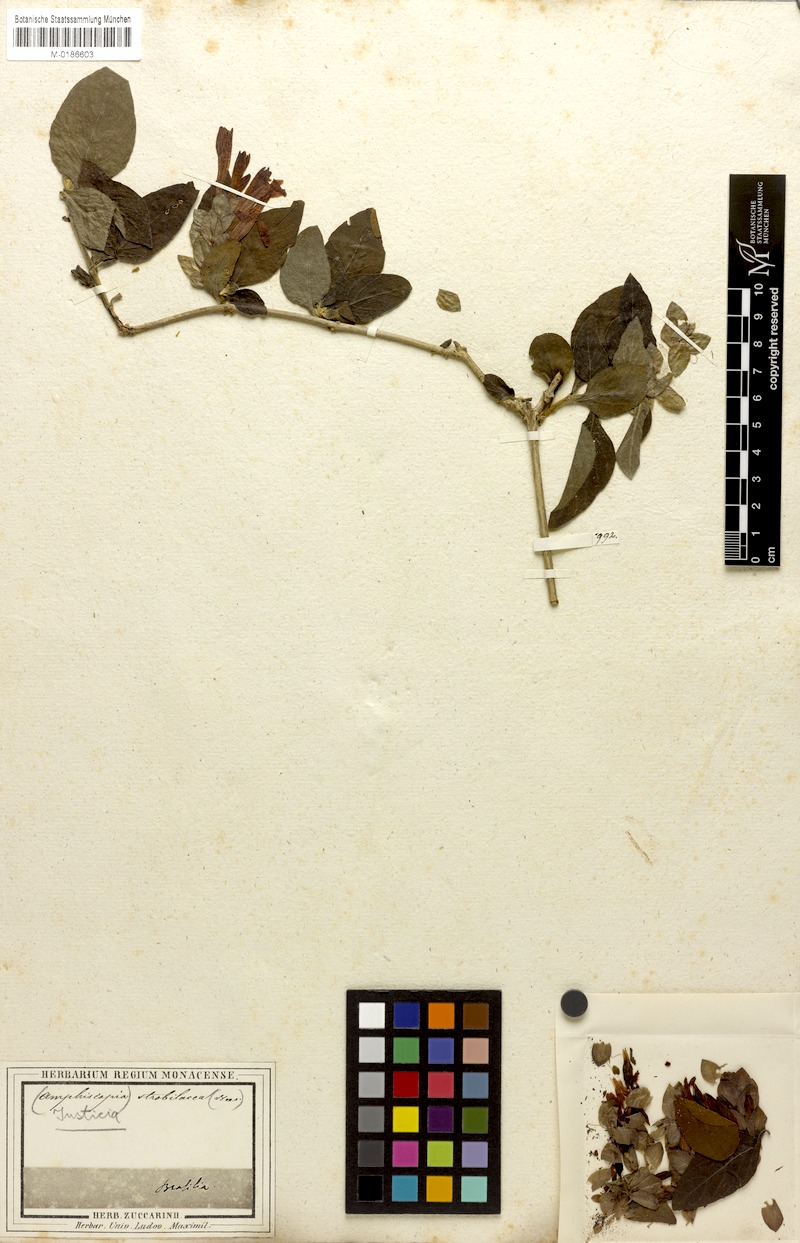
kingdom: Plantae
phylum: Tracheophyta
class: Magnoliopsida
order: Lamiales
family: Acanthaceae
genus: Justicia
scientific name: Justicia aequilabris
